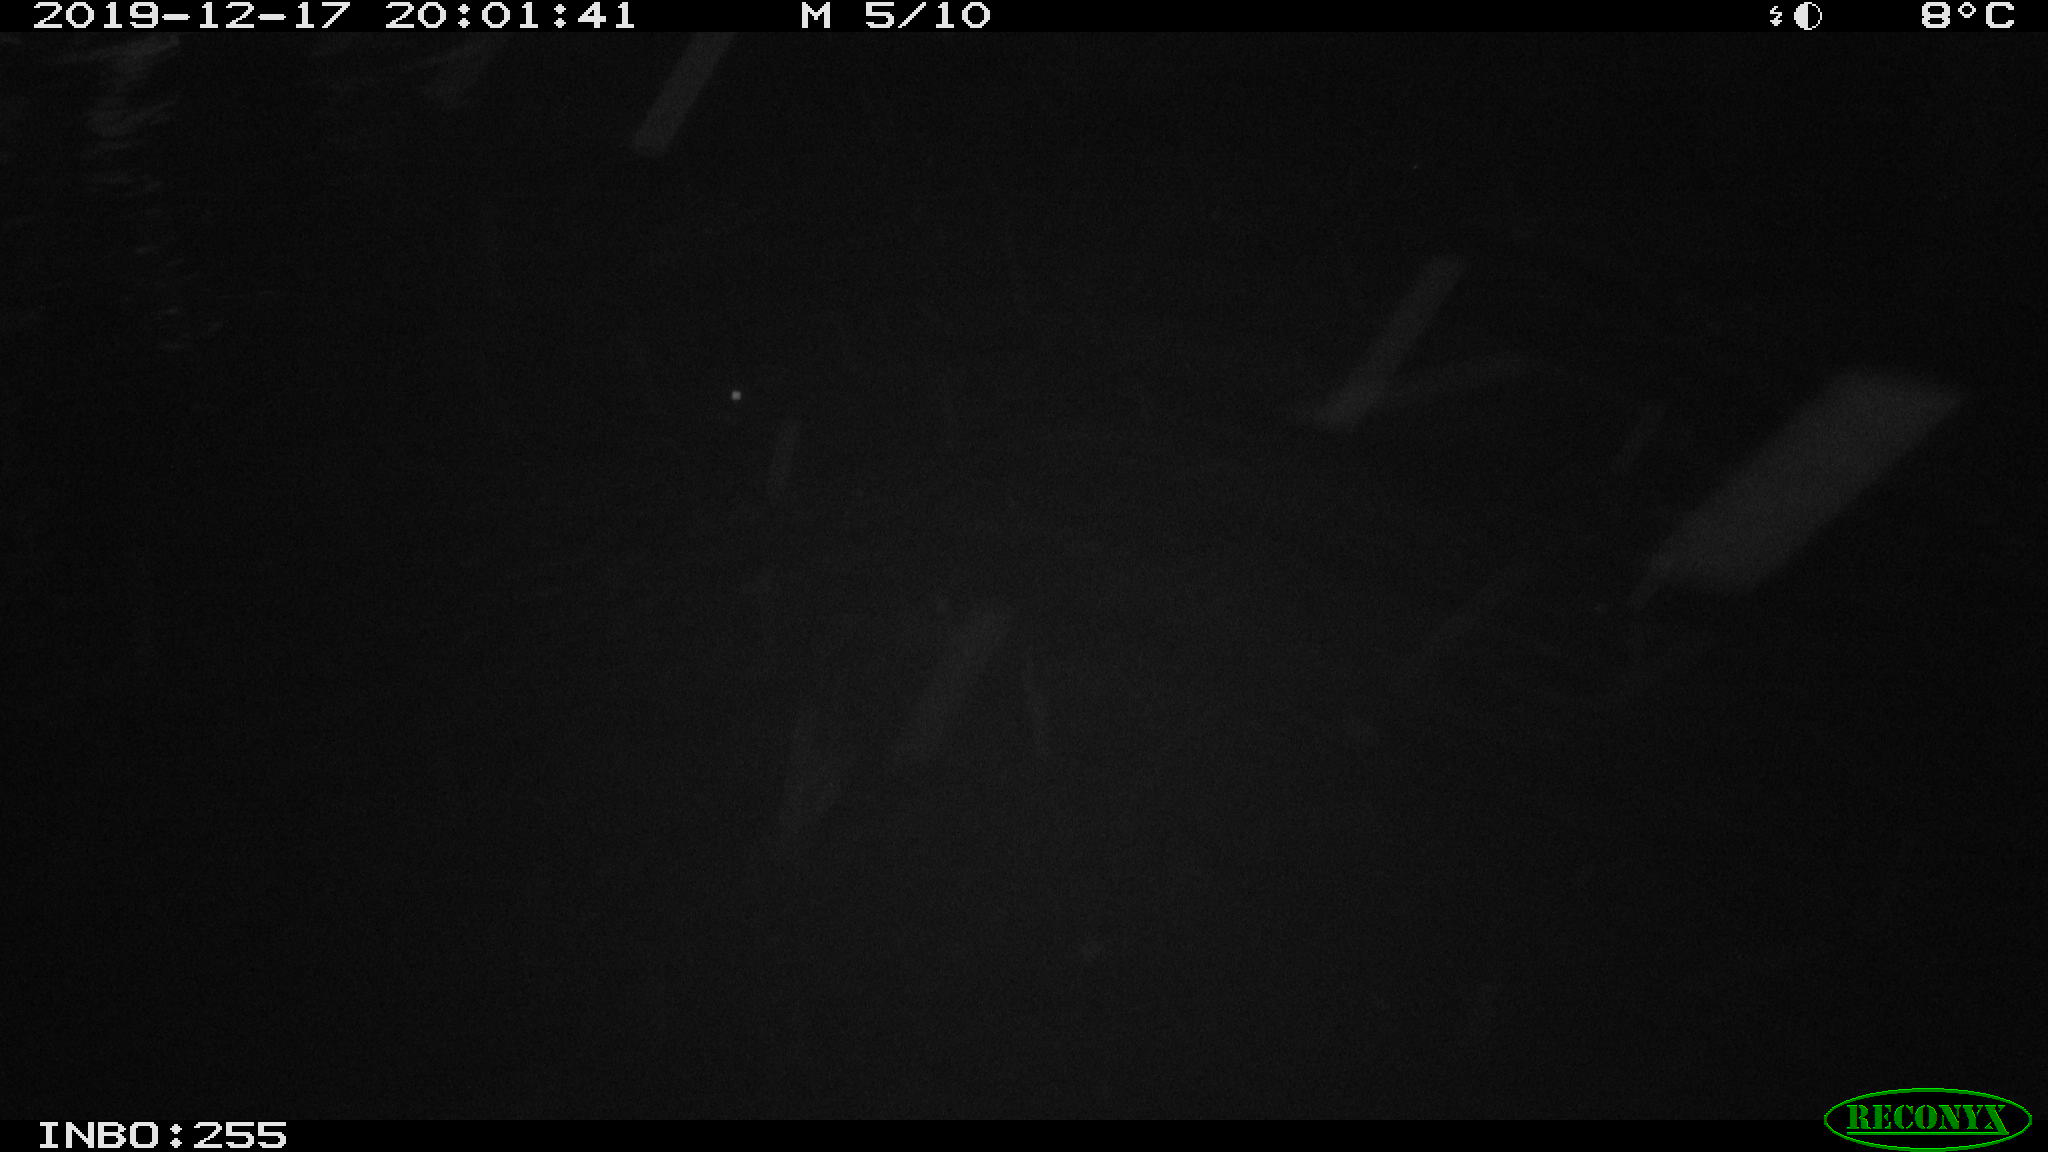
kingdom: Animalia
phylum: Chordata
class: Mammalia
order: Rodentia
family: Muridae
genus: Rattus
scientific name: Rattus norvegicus
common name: Brown rat
